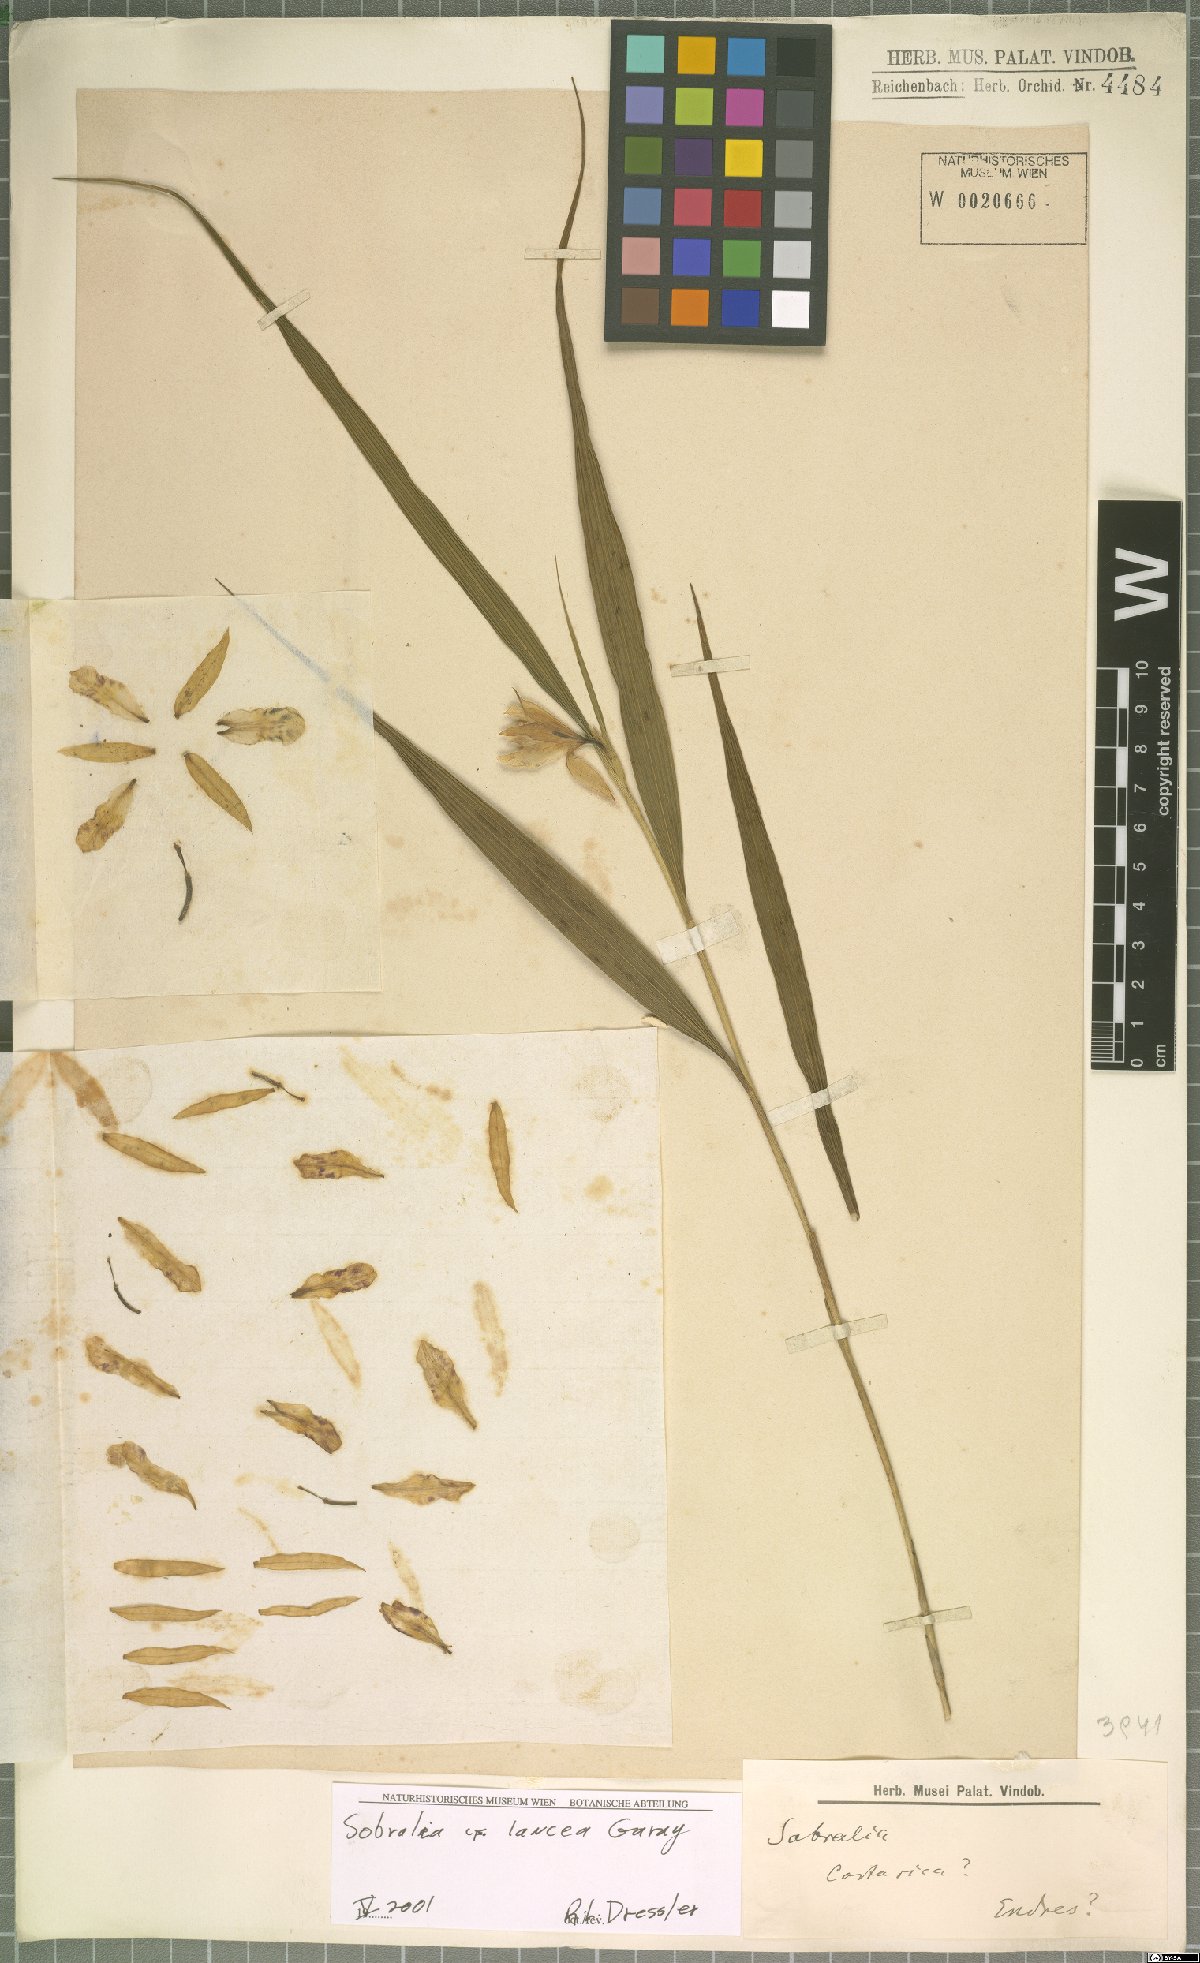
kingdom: Plantae
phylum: Tracheophyta
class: Liliopsida
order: Asparagales
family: Orchidaceae
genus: Sobralia
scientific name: Sobralia lancea
